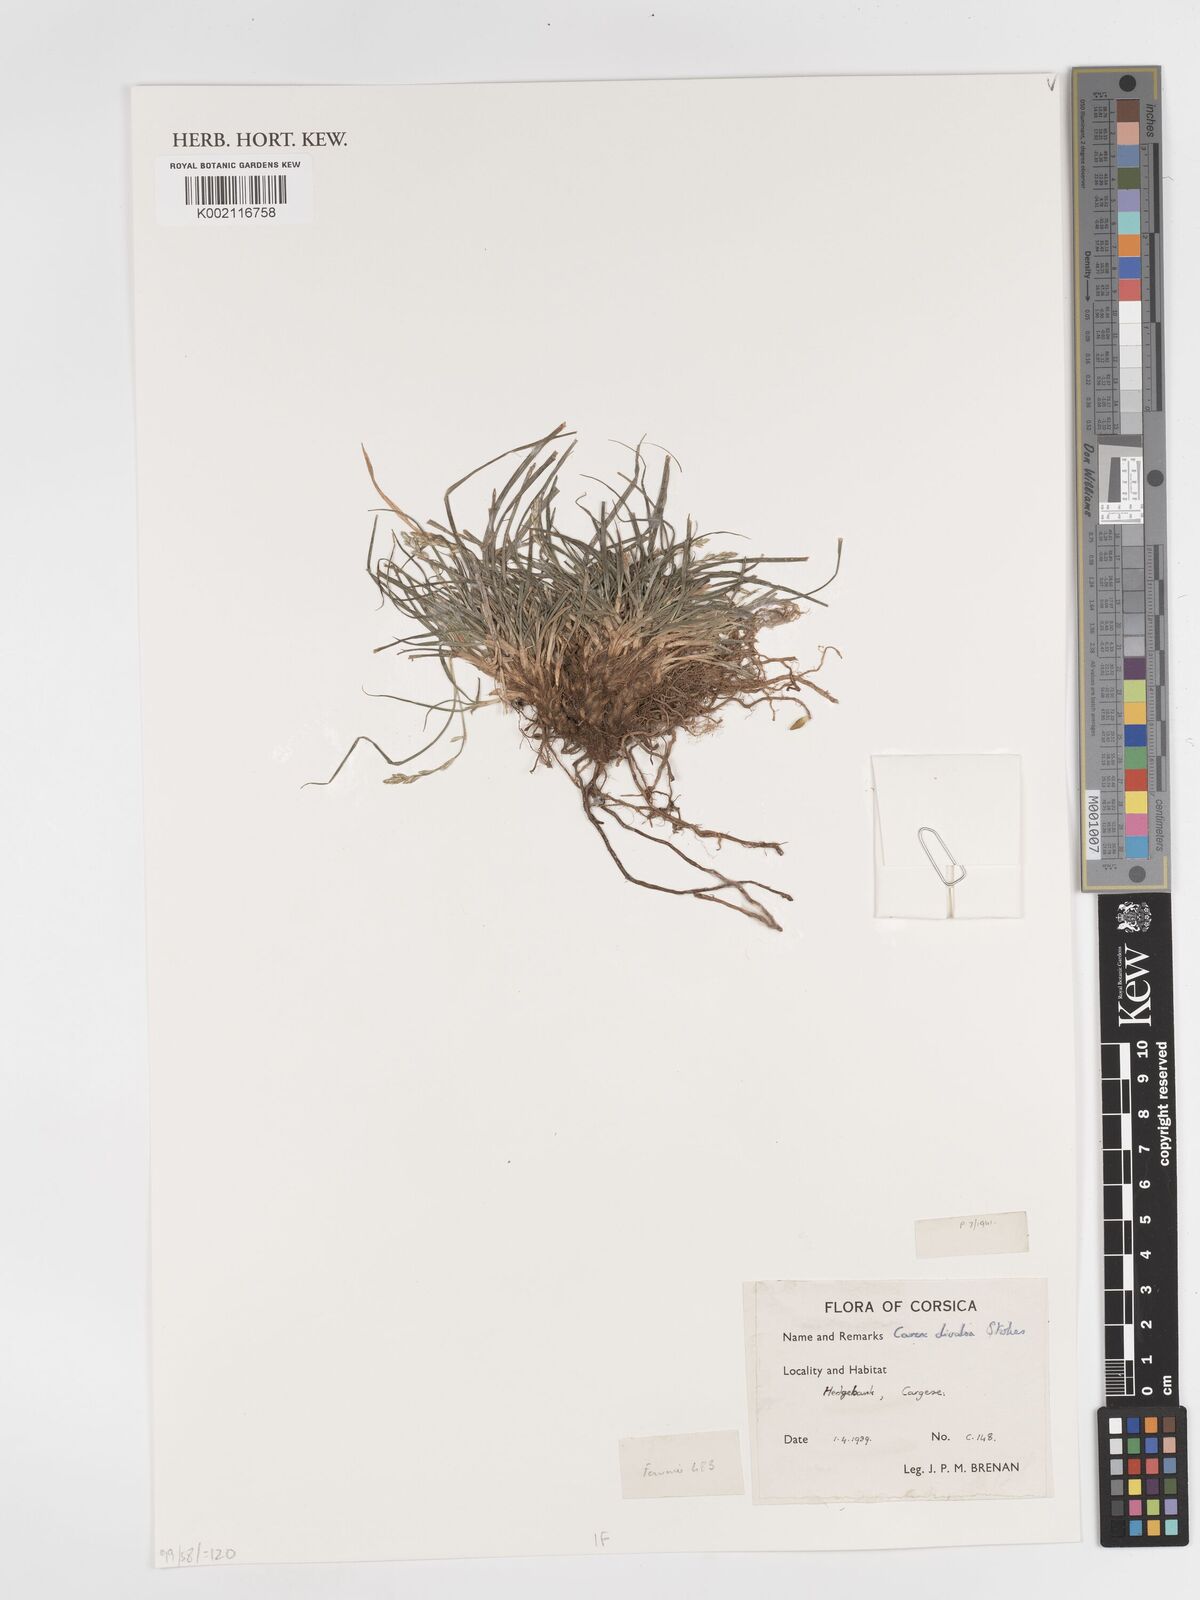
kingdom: Plantae
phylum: Tracheophyta
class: Liliopsida
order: Poales
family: Cyperaceae
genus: Carex
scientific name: Carex divulsa
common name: Grassland sedge
